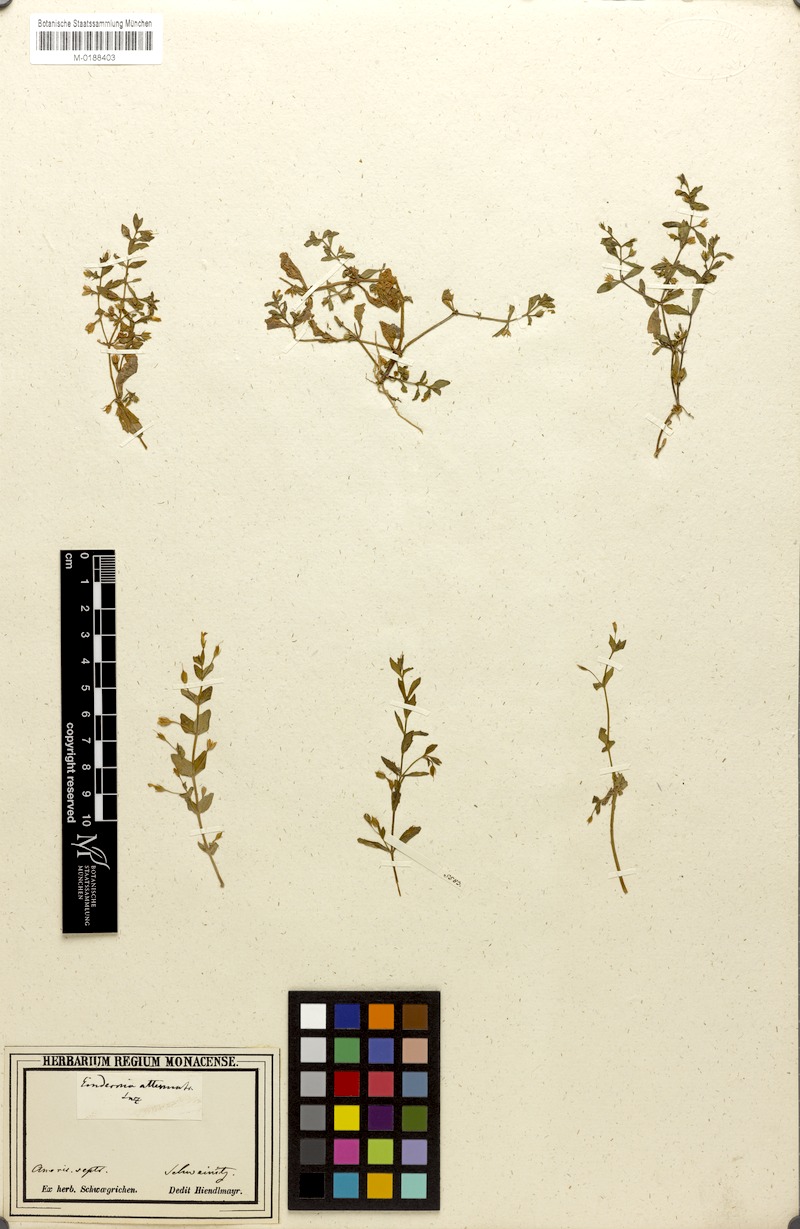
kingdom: Plantae
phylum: Tracheophyta
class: Magnoliopsida
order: Lamiales
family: Linderniaceae
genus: Lindernia
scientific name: Lindernia dubia
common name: Annual false pimpernel
